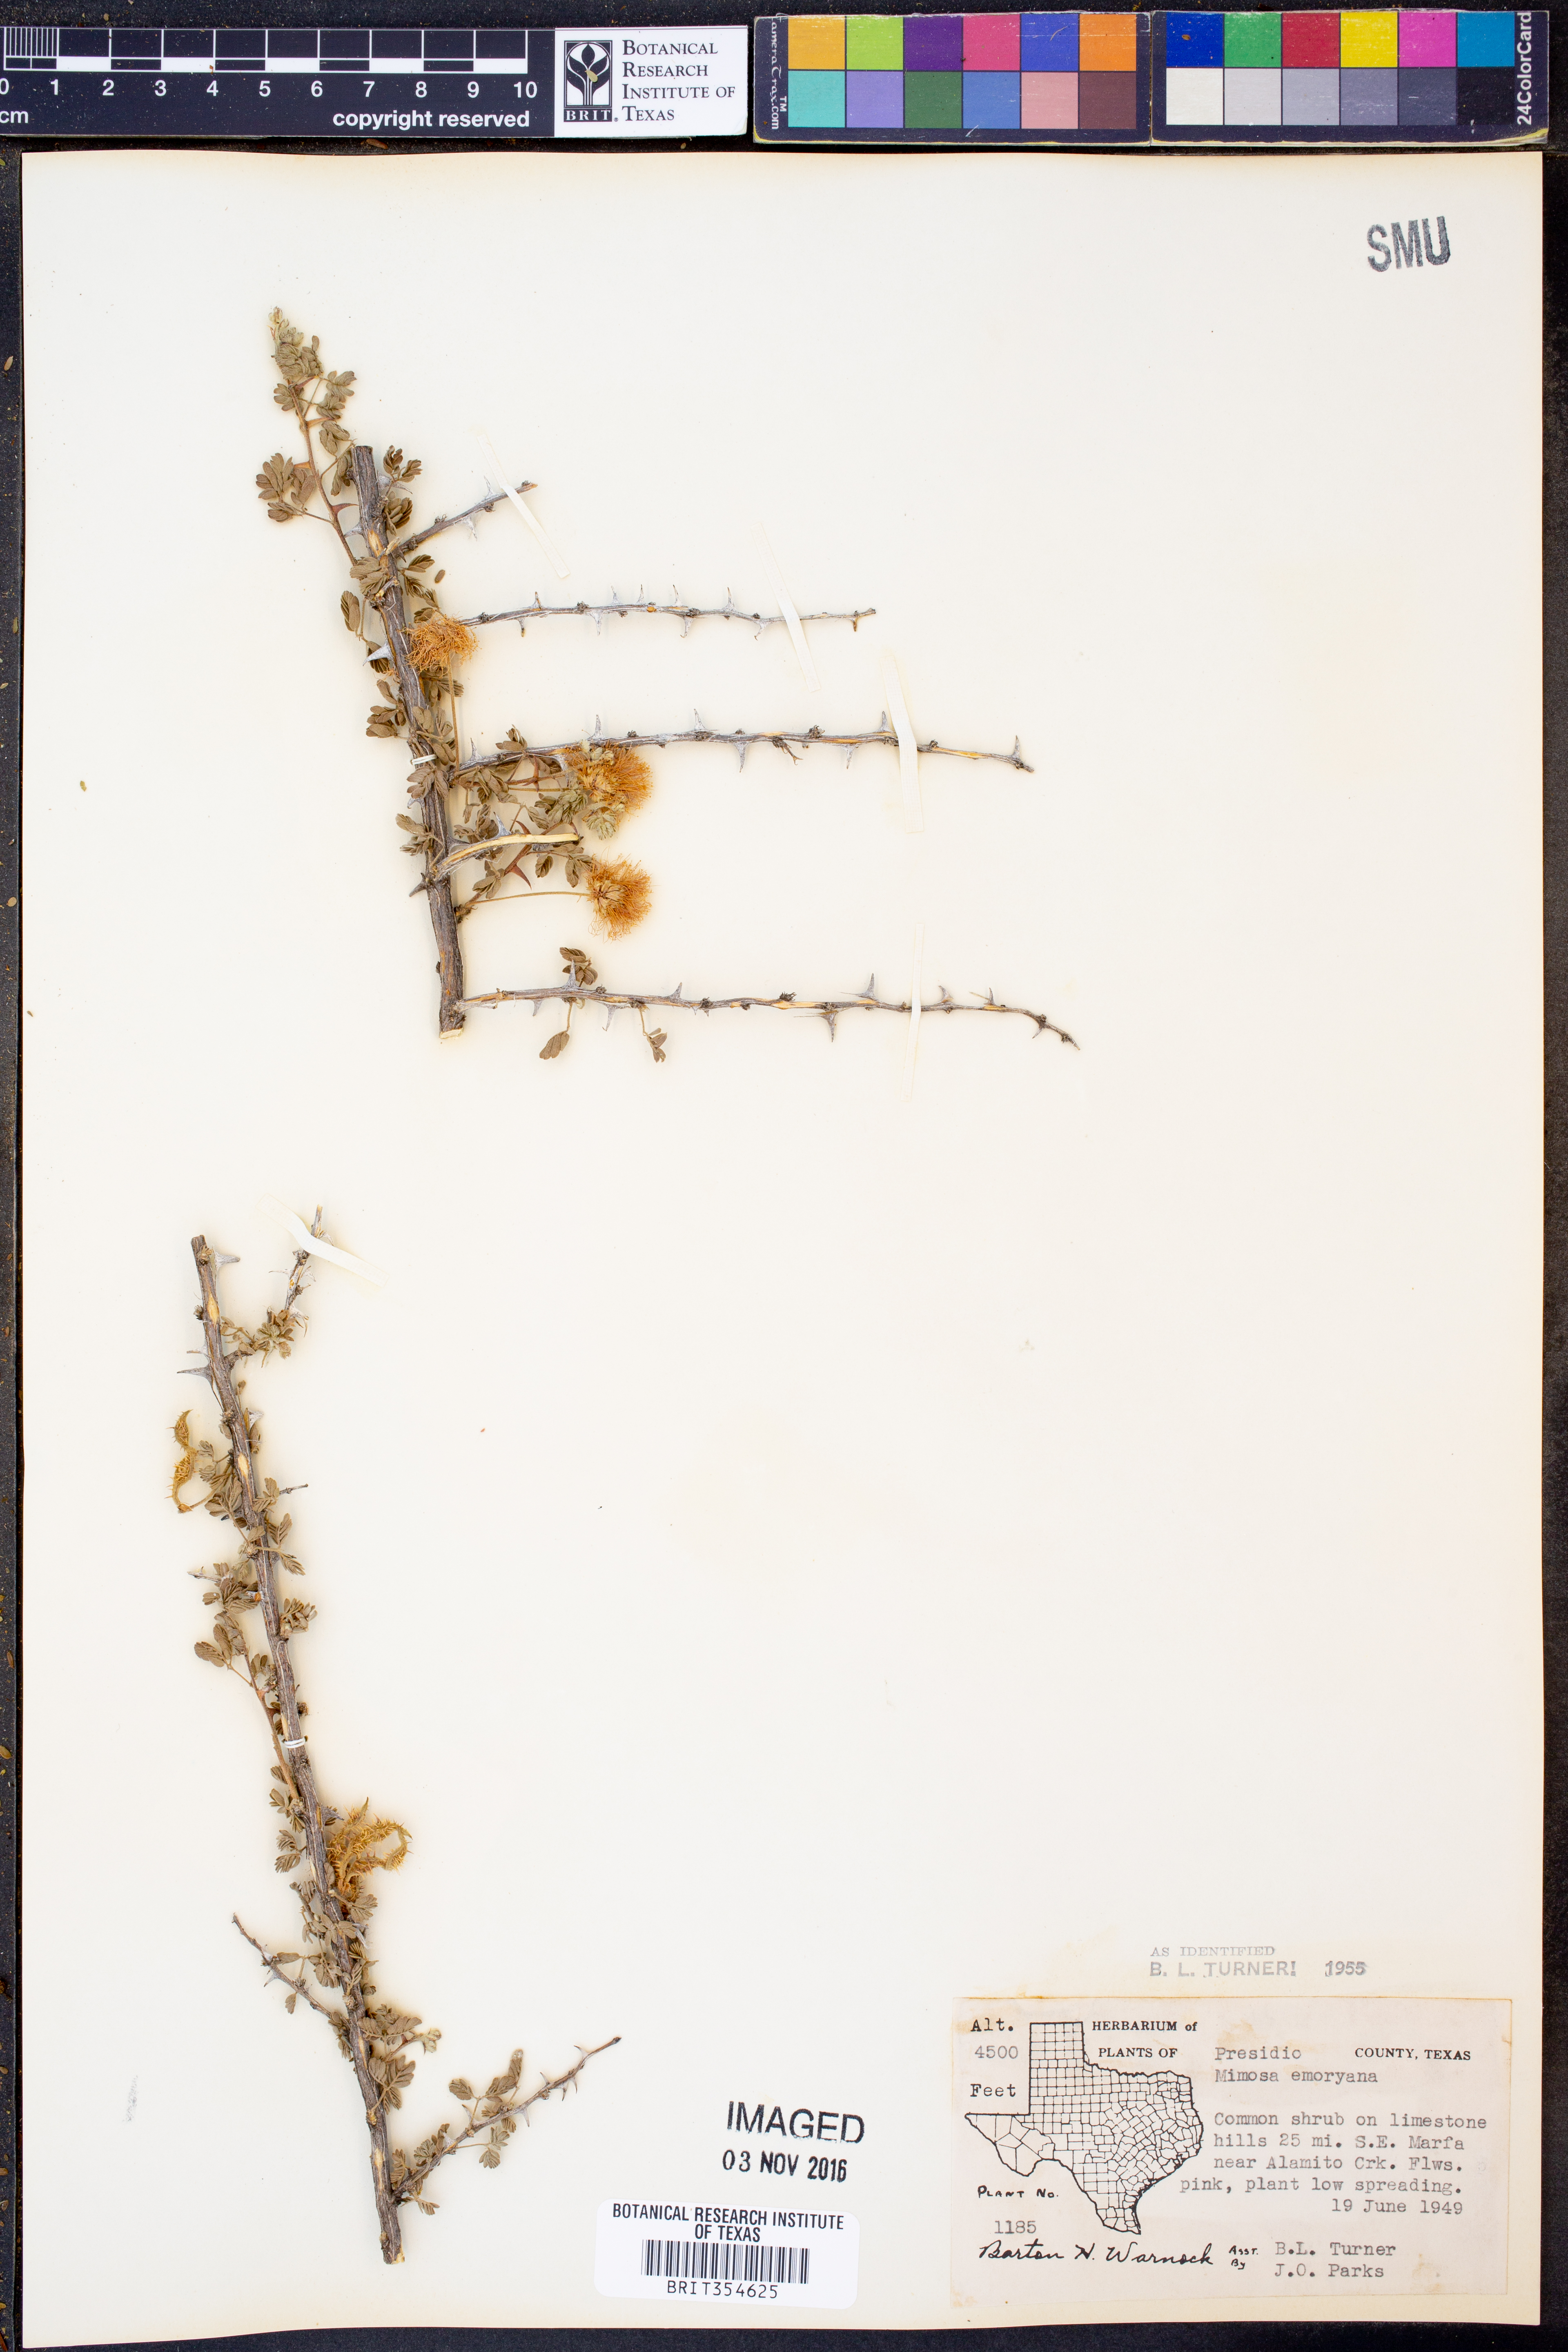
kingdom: Plantae
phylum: Tracheophyta
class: Magnoliopsida
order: Fabales
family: Fabaceae
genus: Mimosa
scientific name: Mimosa emoryana
